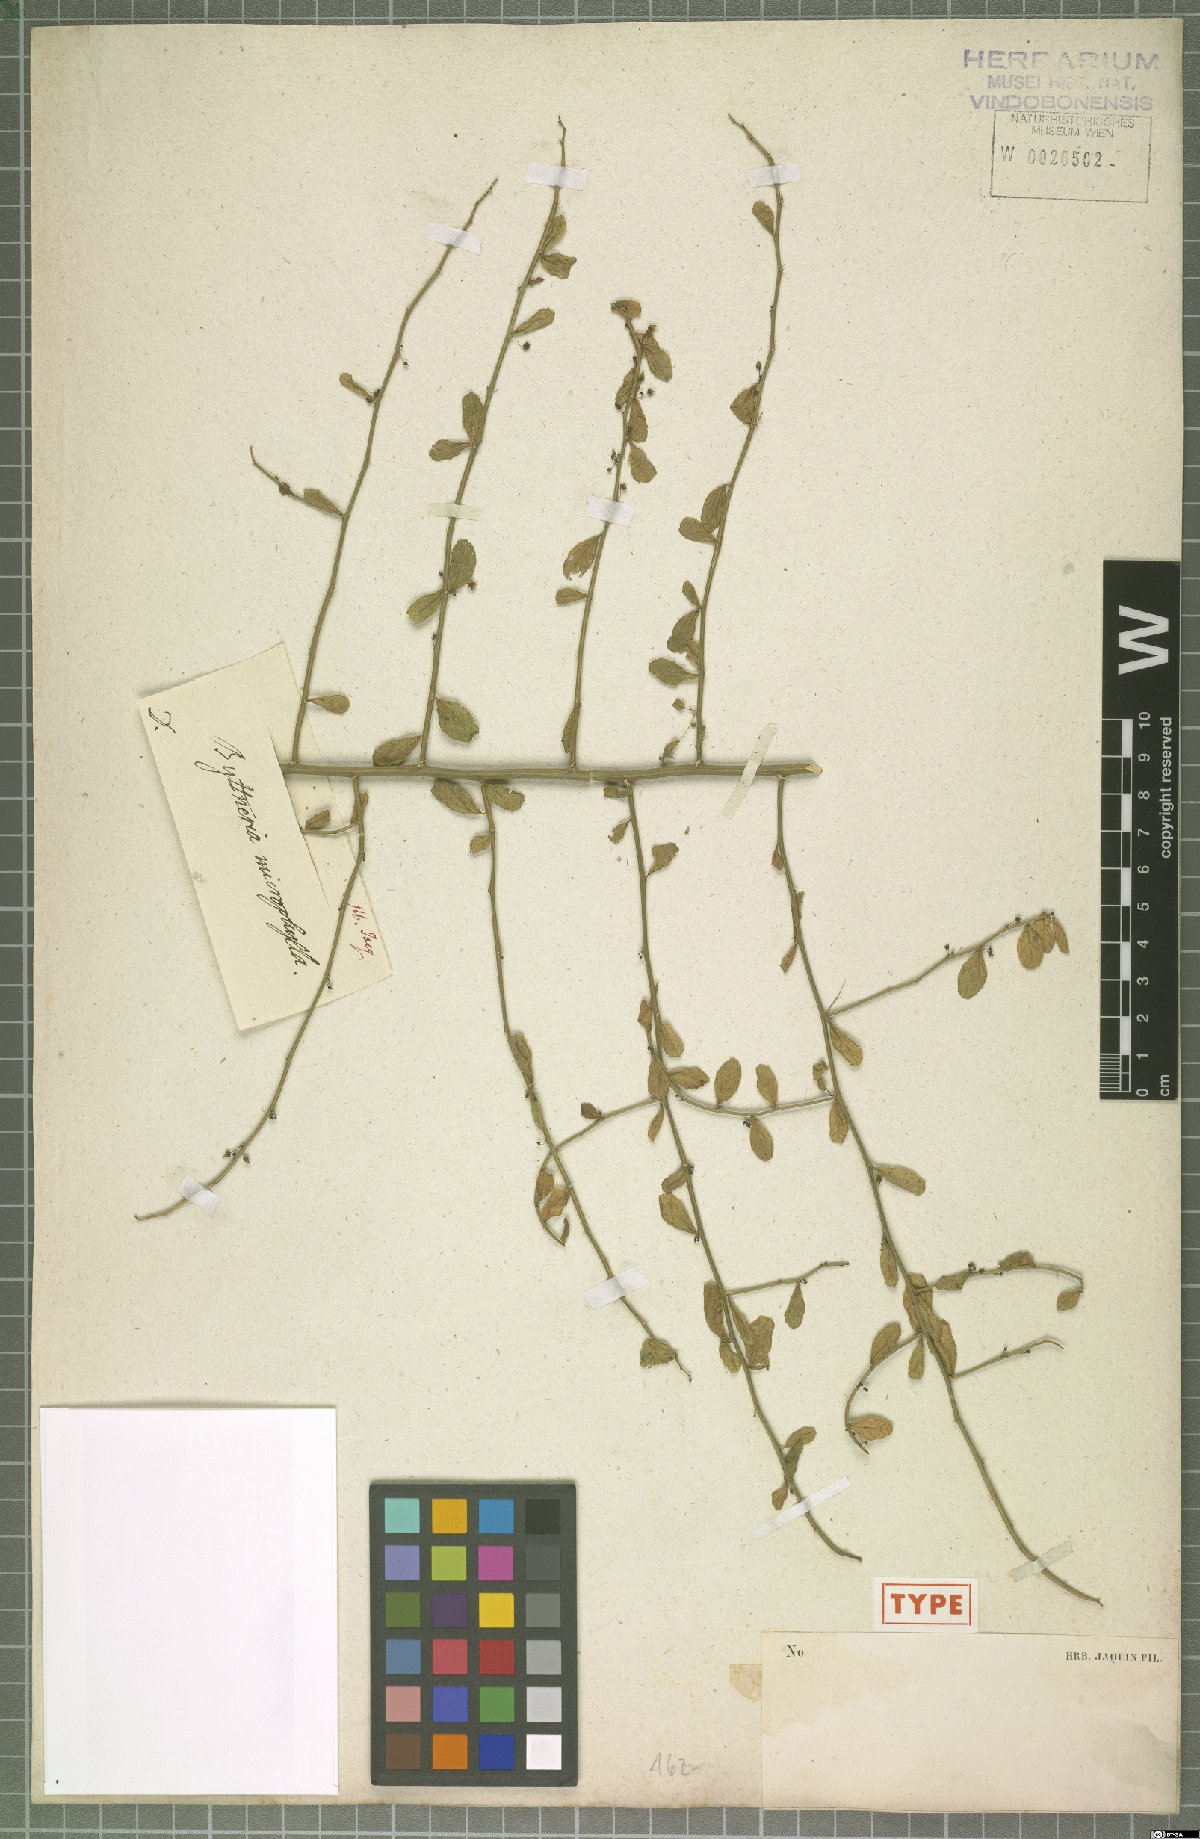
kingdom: Plantae
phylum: Tracheophyta
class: Magnoliopsida
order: Malvales
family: Malvaceae
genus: Byttneria
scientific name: Byttneria microphylla
